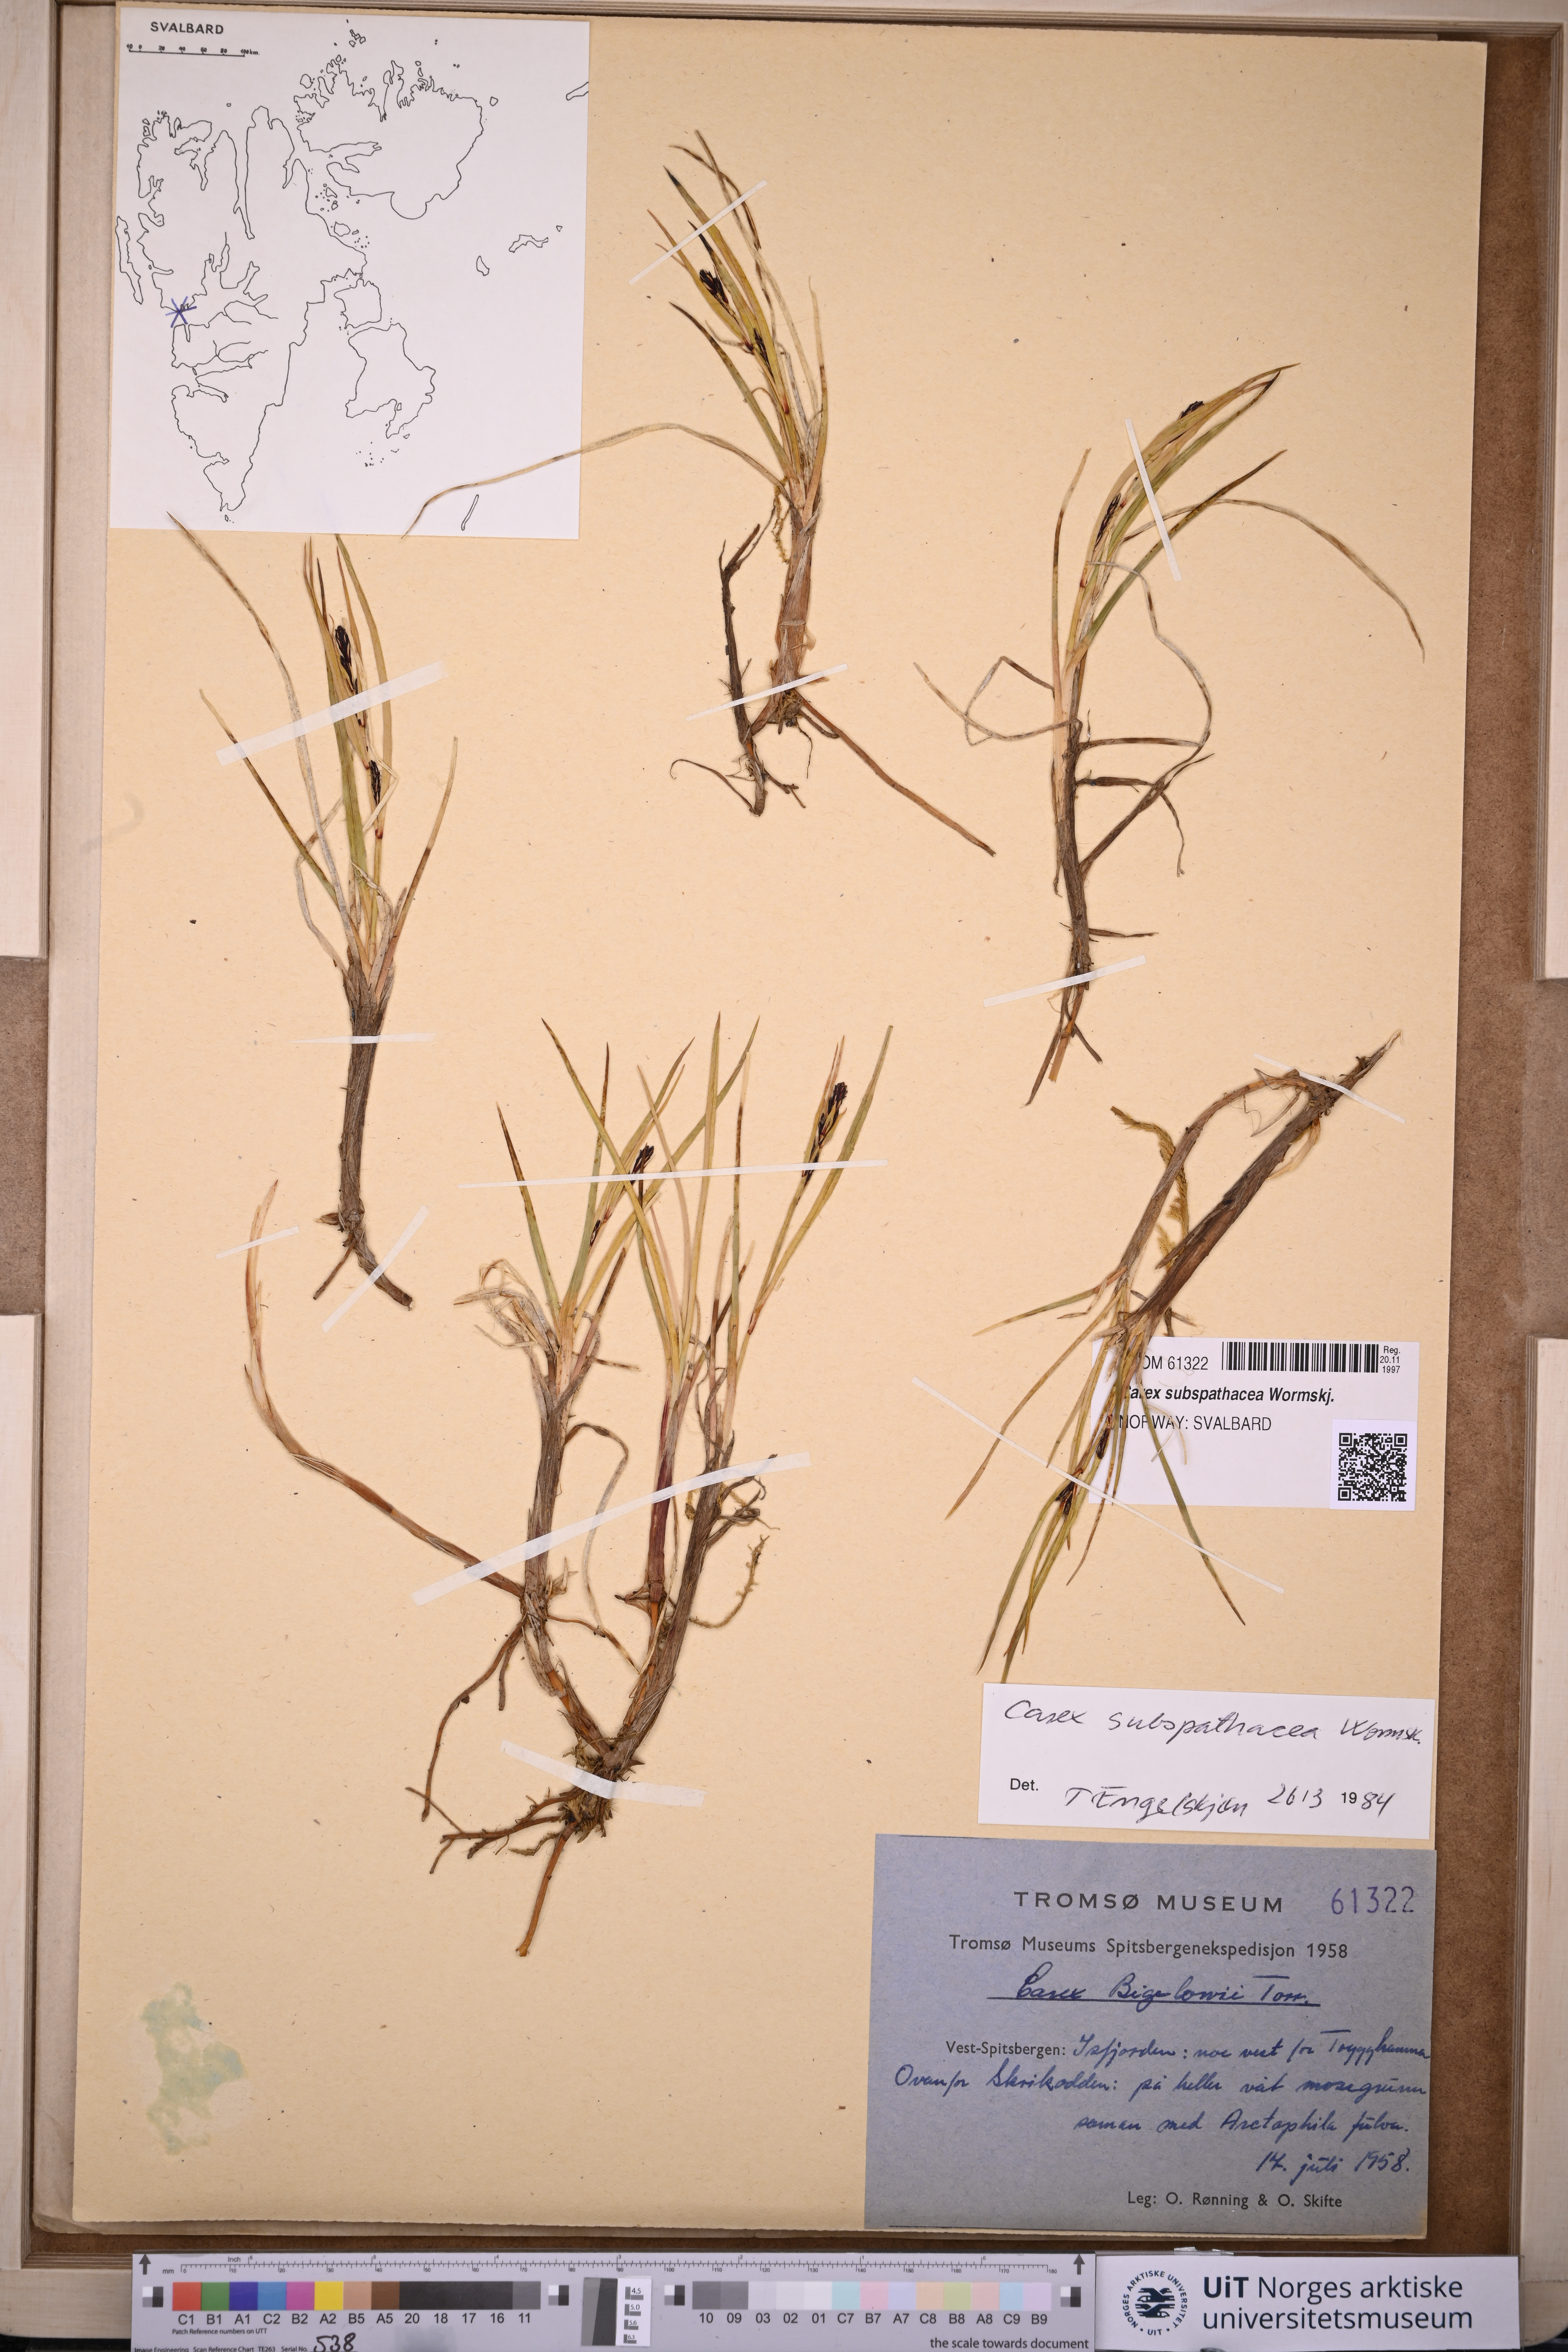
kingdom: Plantae
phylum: Tracheophyta
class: Liliopsida
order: Poales
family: Cyperaceae
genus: Carex
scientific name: Carex subspathacea
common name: Hoppner's sedge
